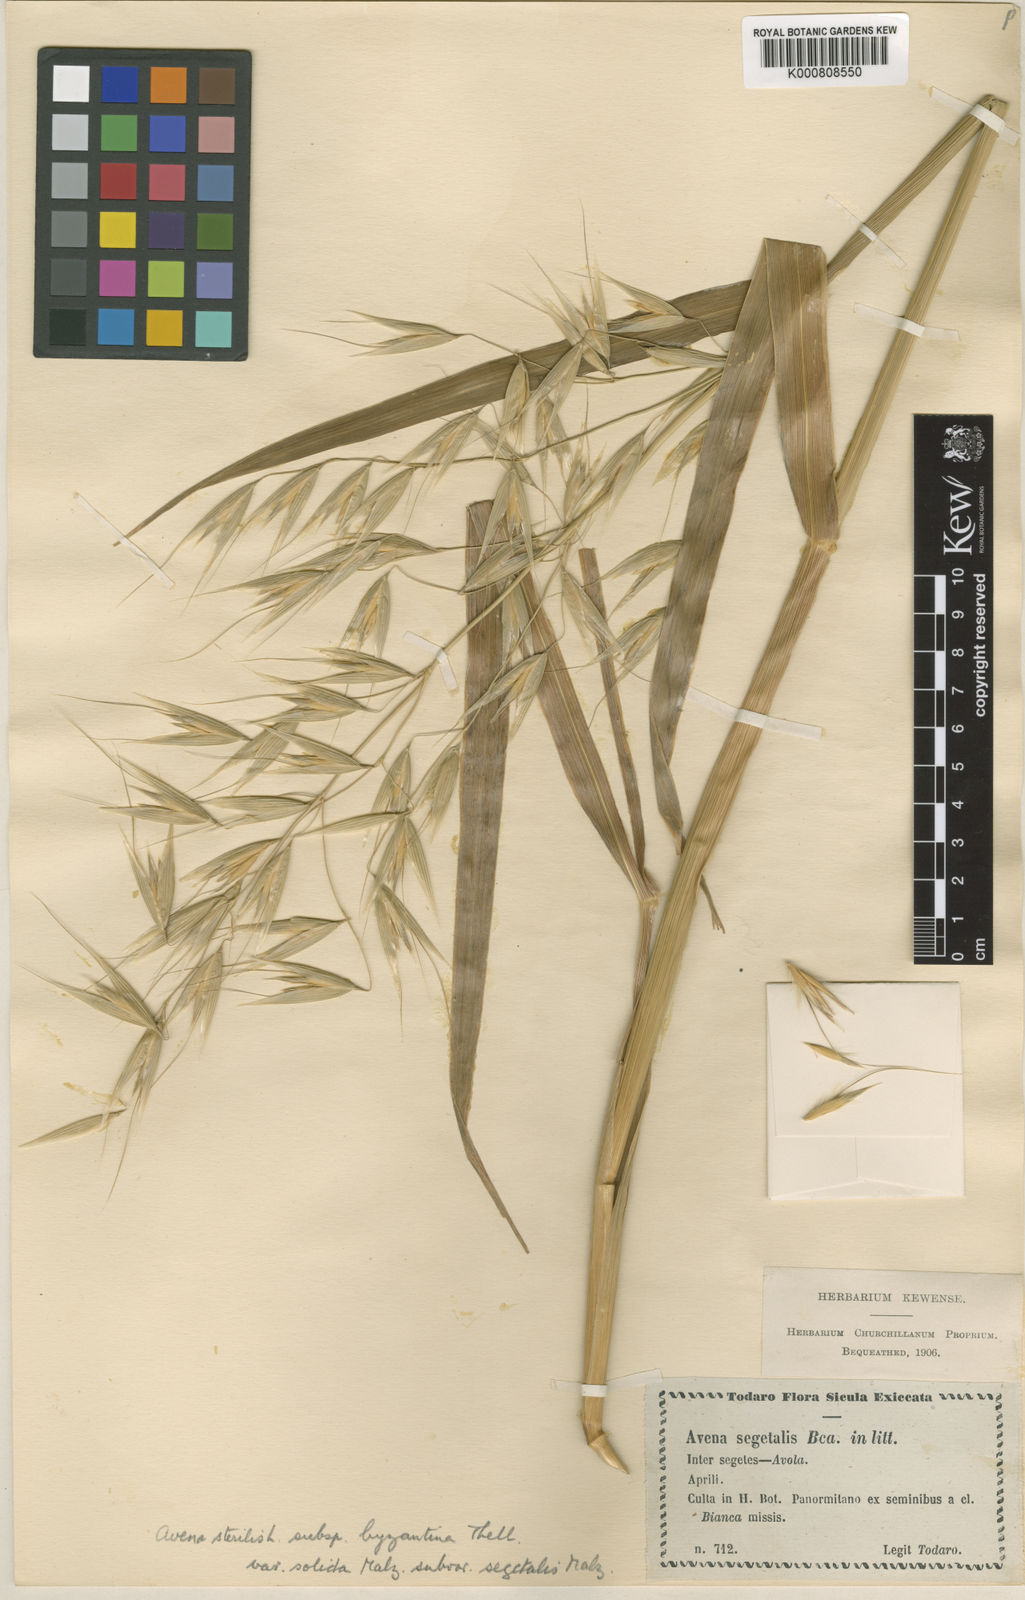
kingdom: Plantae
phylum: Tracheophyta
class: Liliopsida
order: Poales
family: Poaceae
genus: Avena
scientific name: Avena byzantina
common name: Algerian oat
